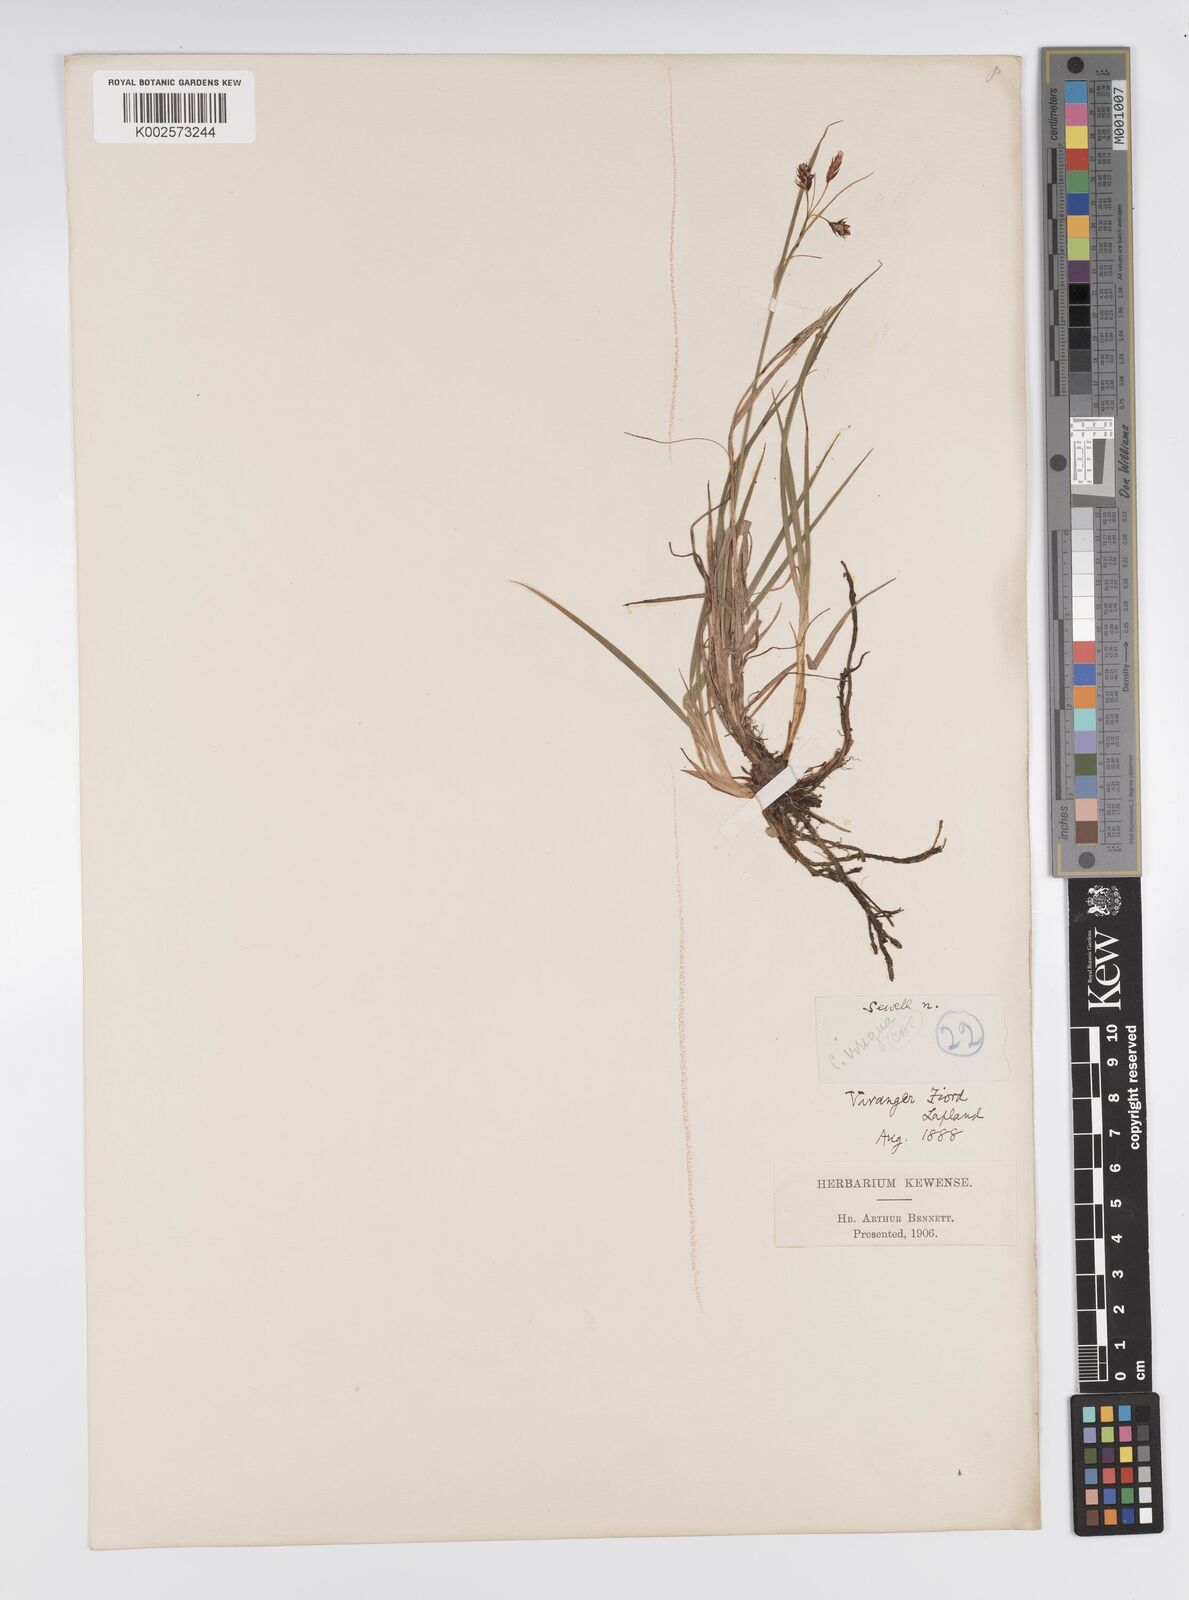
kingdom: Plantae
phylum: Tracheophyta
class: Liliopsida
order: Poales
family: Cyperaceae
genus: Carex
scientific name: Carex magellanica
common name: Bog sedge
